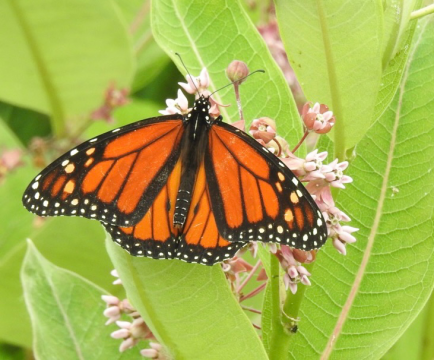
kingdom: Animalia
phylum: Arthropoda
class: Insecta
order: Lepidoptera
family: Nymphalidae
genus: Danaus
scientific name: Danaus plexippus
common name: Monarch
